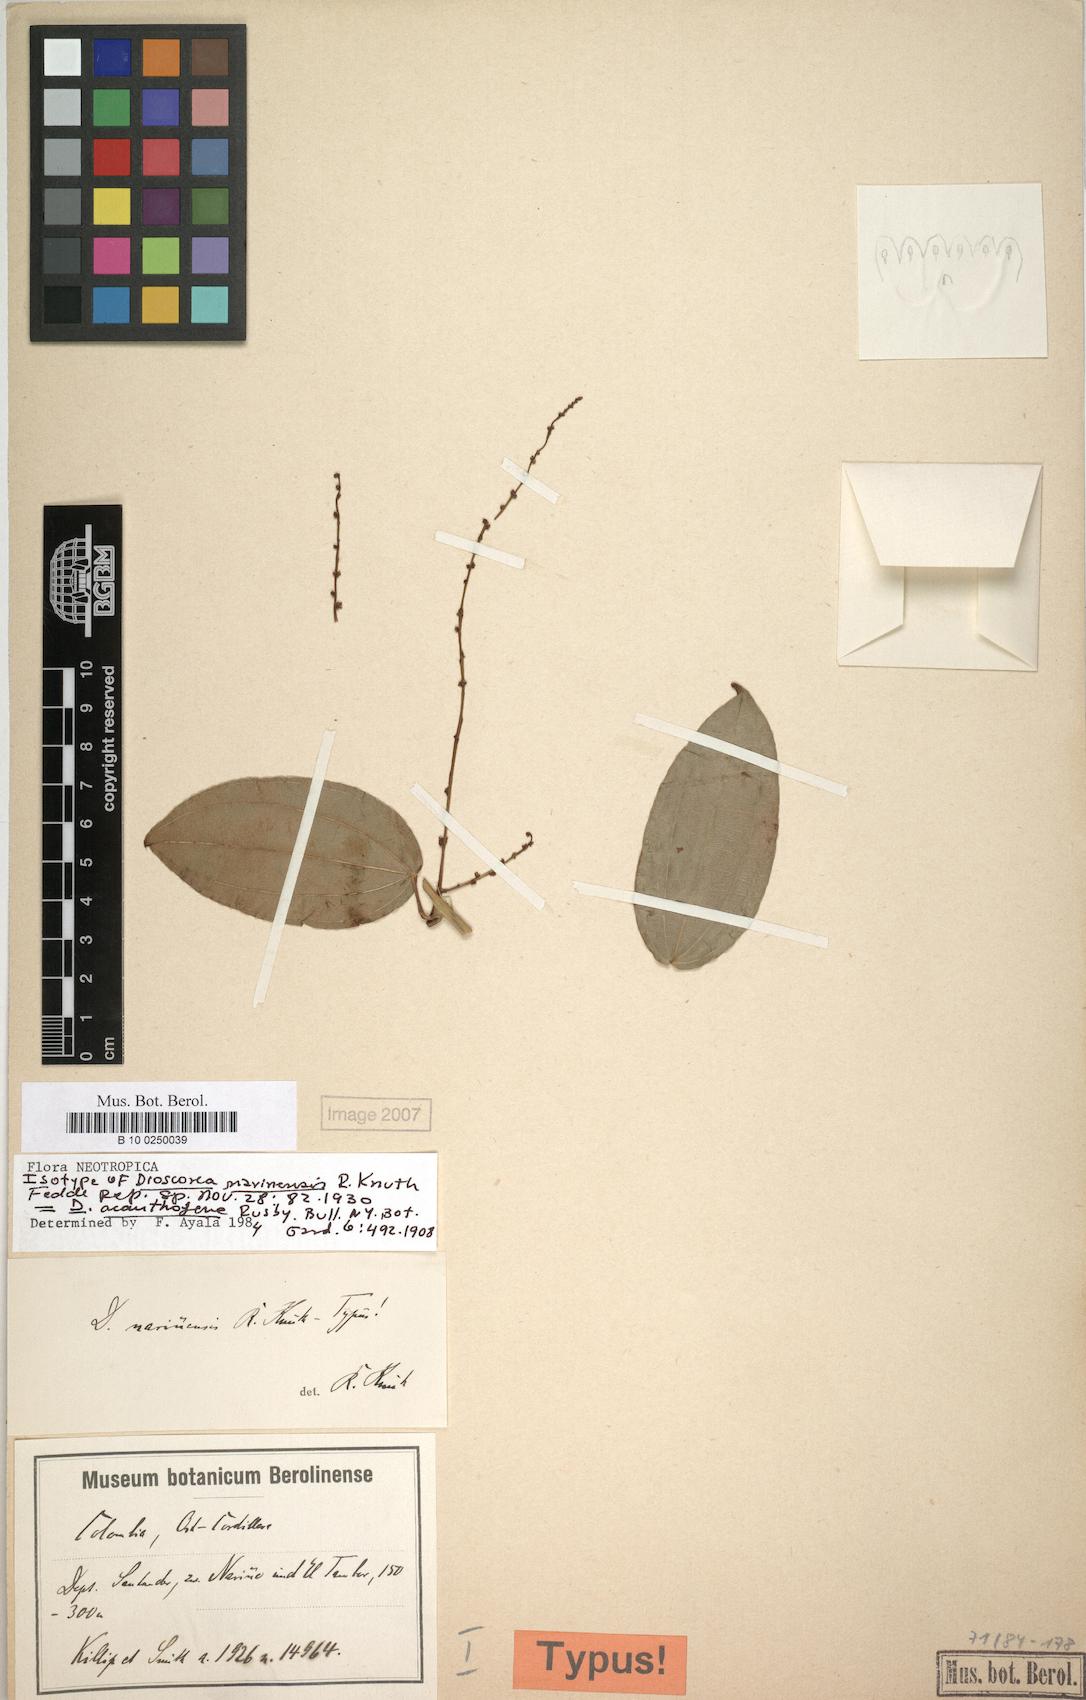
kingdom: Plantae
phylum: Tracheophyta
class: Liliopsida
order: Dioscoreales
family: Dioscoreaceae
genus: Dioscorea
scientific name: Dioscorea acanthogene
